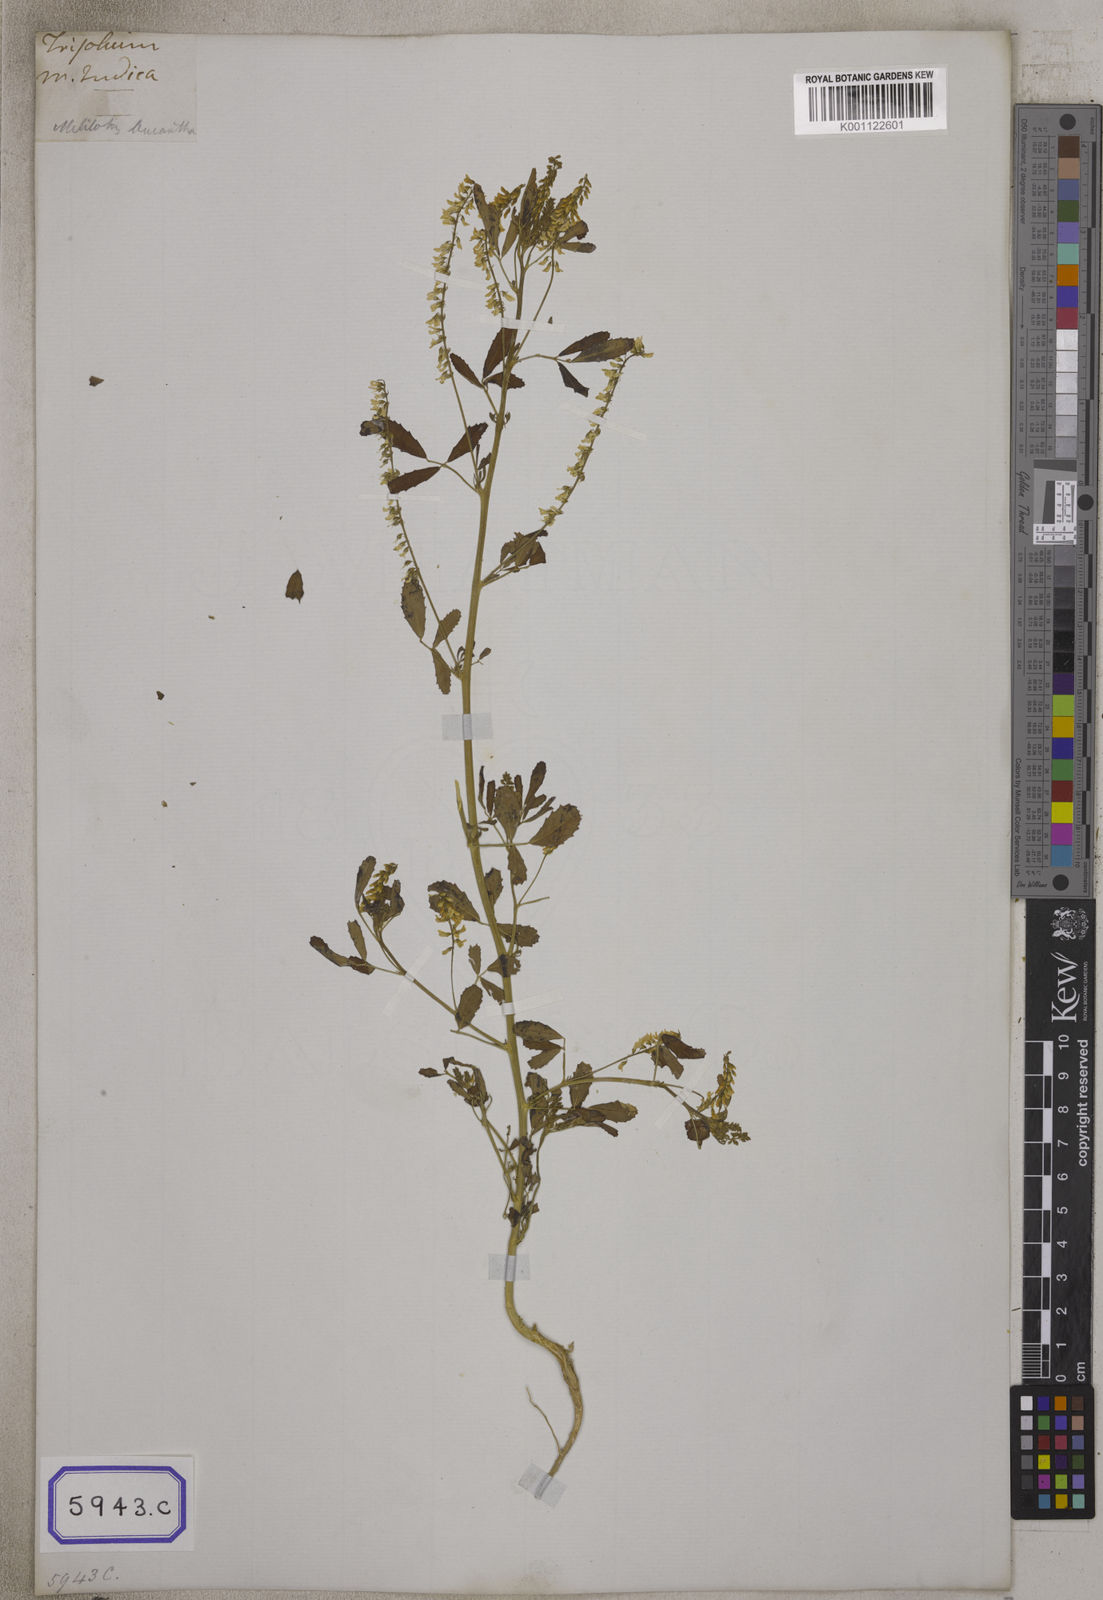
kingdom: Plantae
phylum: Tracheophyta
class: Magnoliopsida
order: Fabales
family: Fabaceae
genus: Melilotus
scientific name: Melilotus indicus
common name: Small melilot
